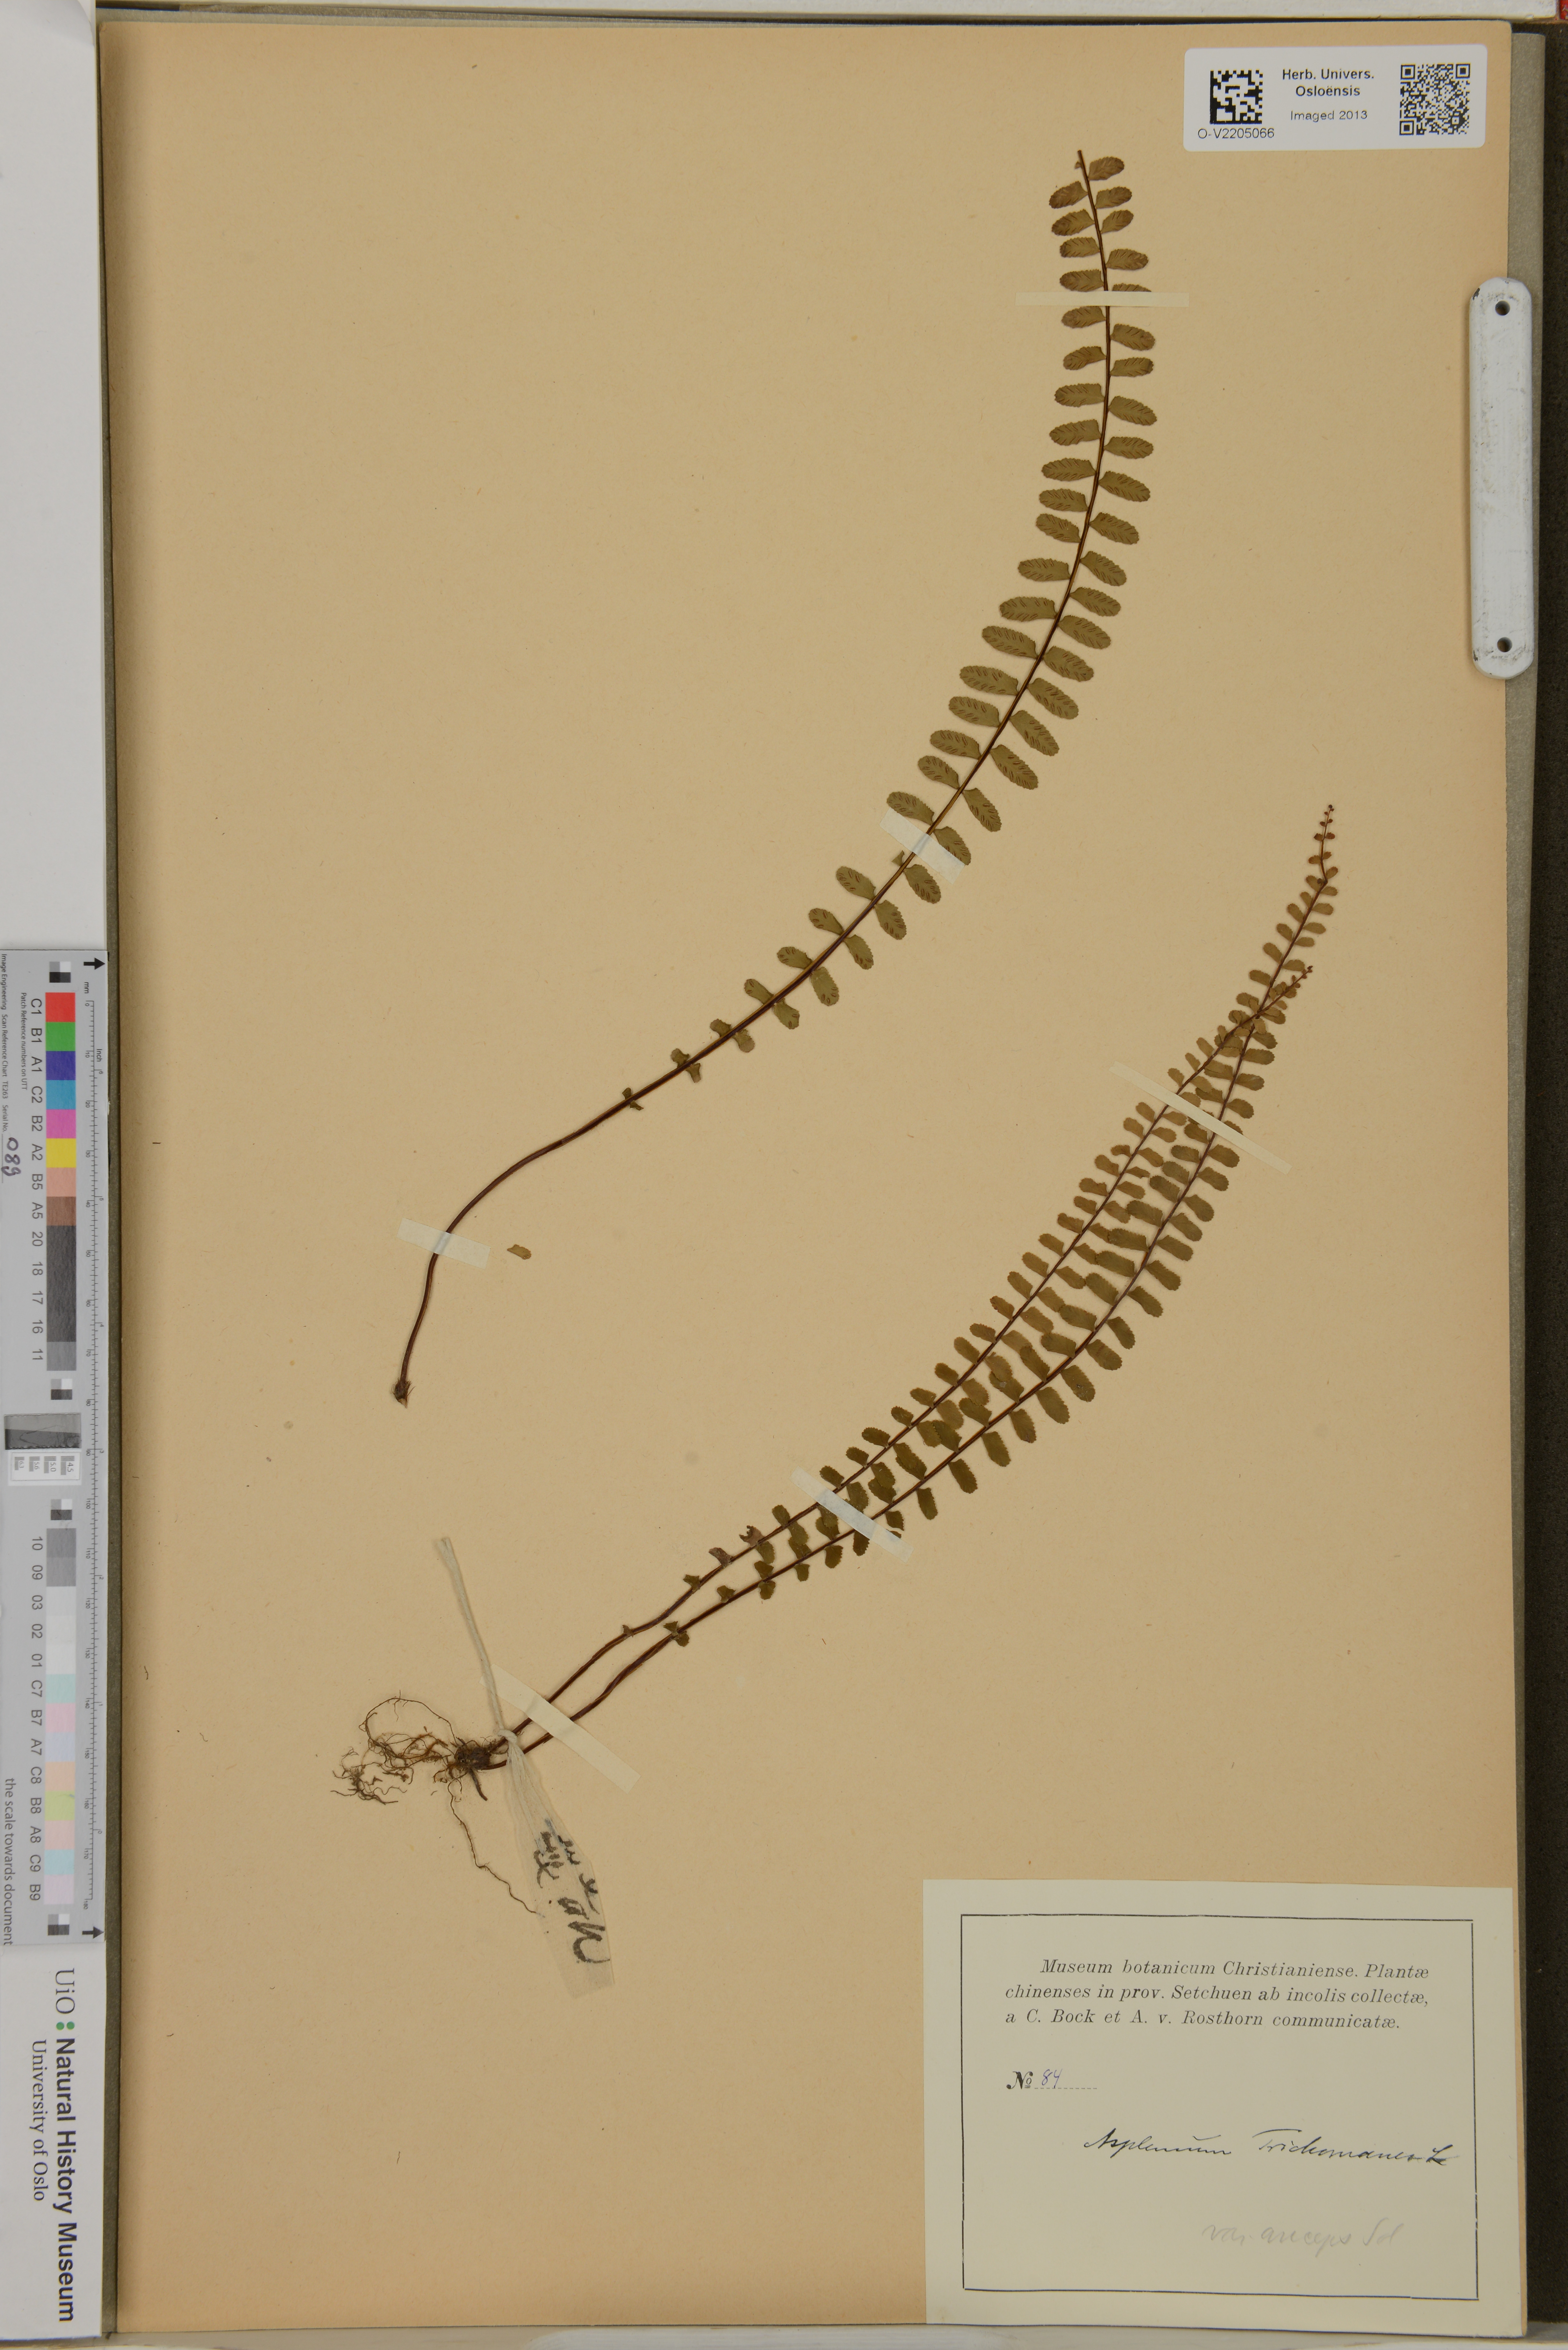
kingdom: Plantae
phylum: Tracheophyta
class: Polypodiopsida
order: Polypodiales
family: Aspleniaceae
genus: Asplenium
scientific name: Asplenium trichomanes
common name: Maidenhair spleenwort
